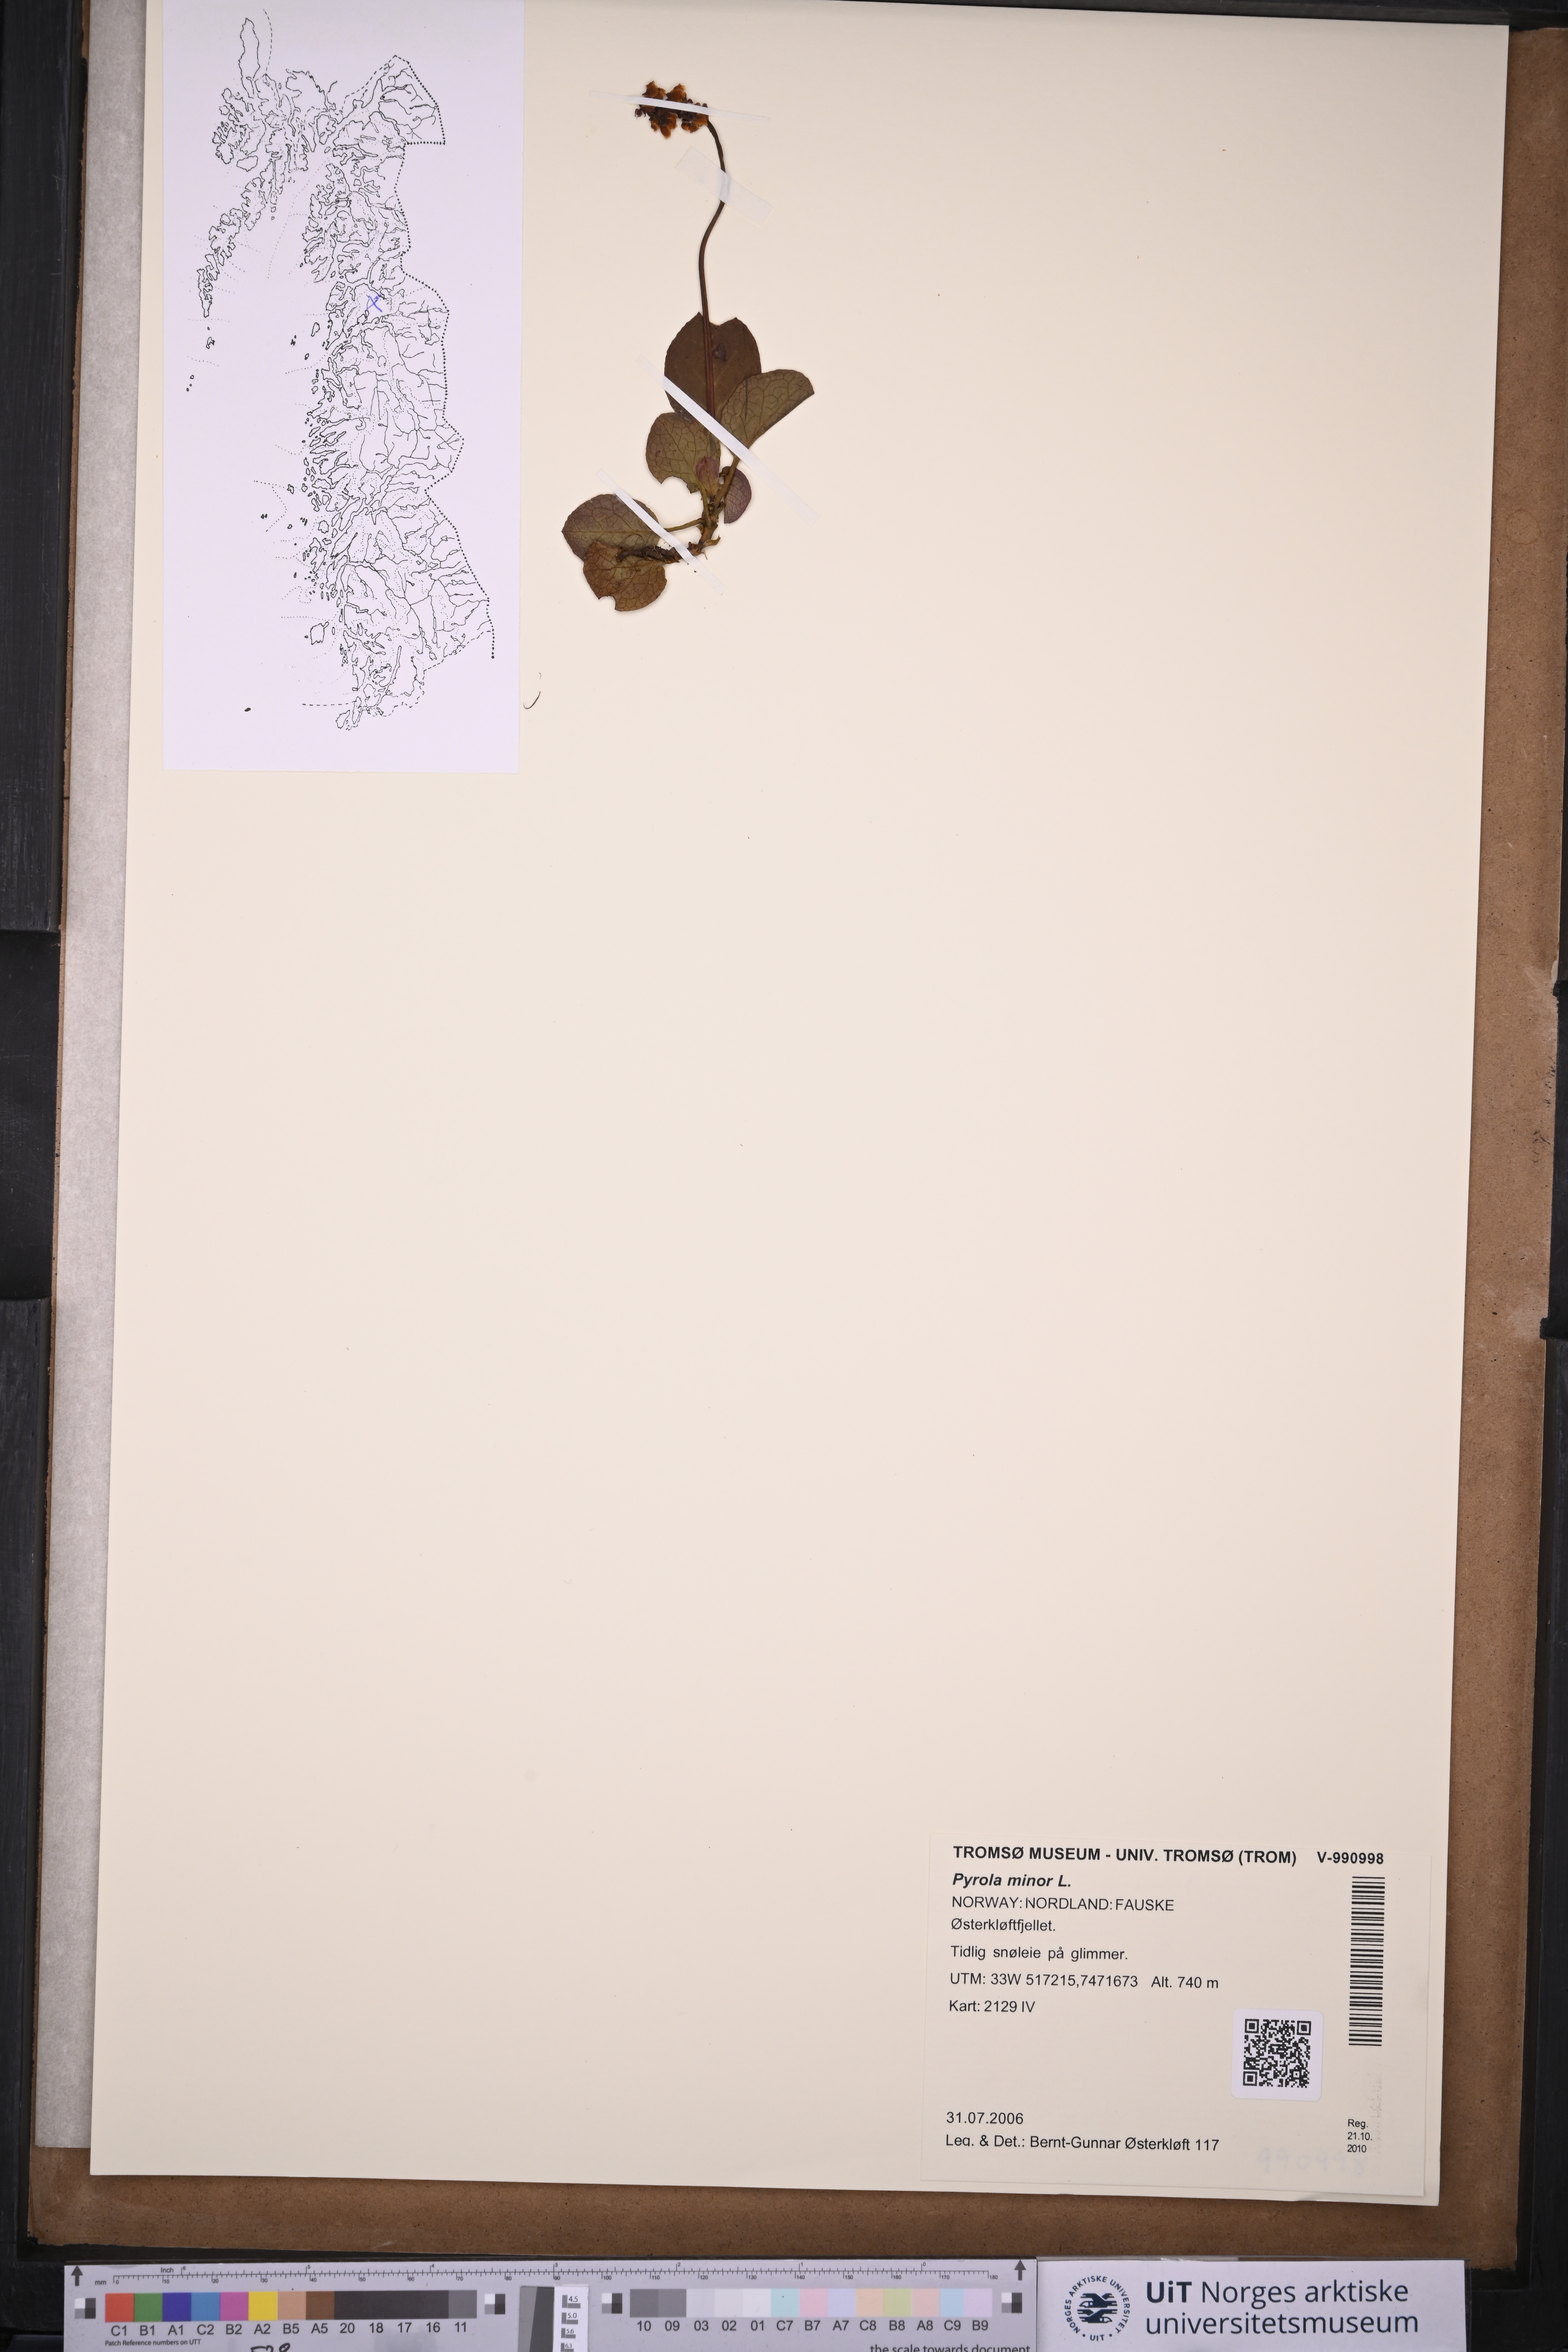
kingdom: Plantae
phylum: Tracheophyta
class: Magnoliopsida
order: Ericales
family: Ericaceae
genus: Pyrola
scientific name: Pyrola minor
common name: Common wintergreen
